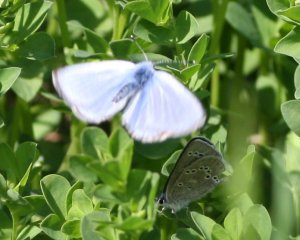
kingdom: Animalia
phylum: Arthropoda
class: Insecta
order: Lepidoptera
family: Lycaenidae
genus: Glaucopsyche
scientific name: Glaucopsyche lygdamus
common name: Silvery Blue
